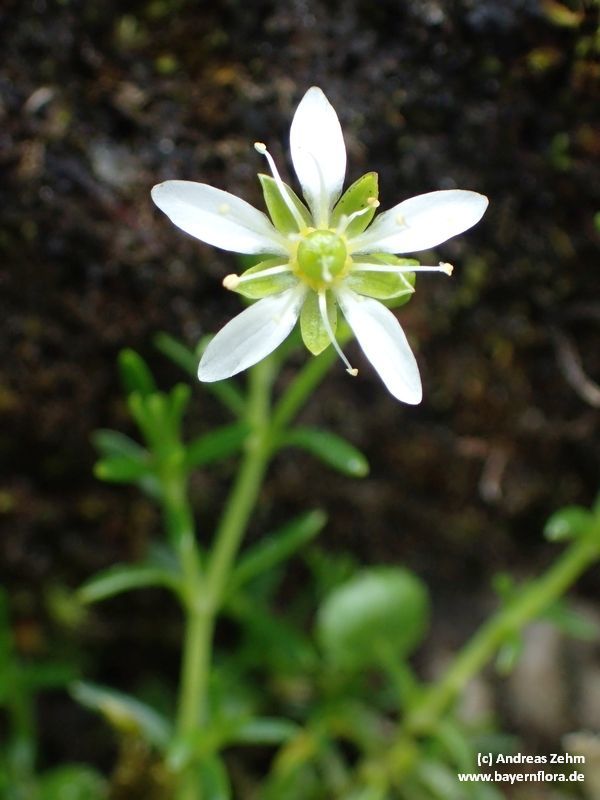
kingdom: Plantae
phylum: Tracheophyta
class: Magnoliopsida
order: Caryophyllales
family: Caryophyllaceae
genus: Moehringia
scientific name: Moehringia ciliata
